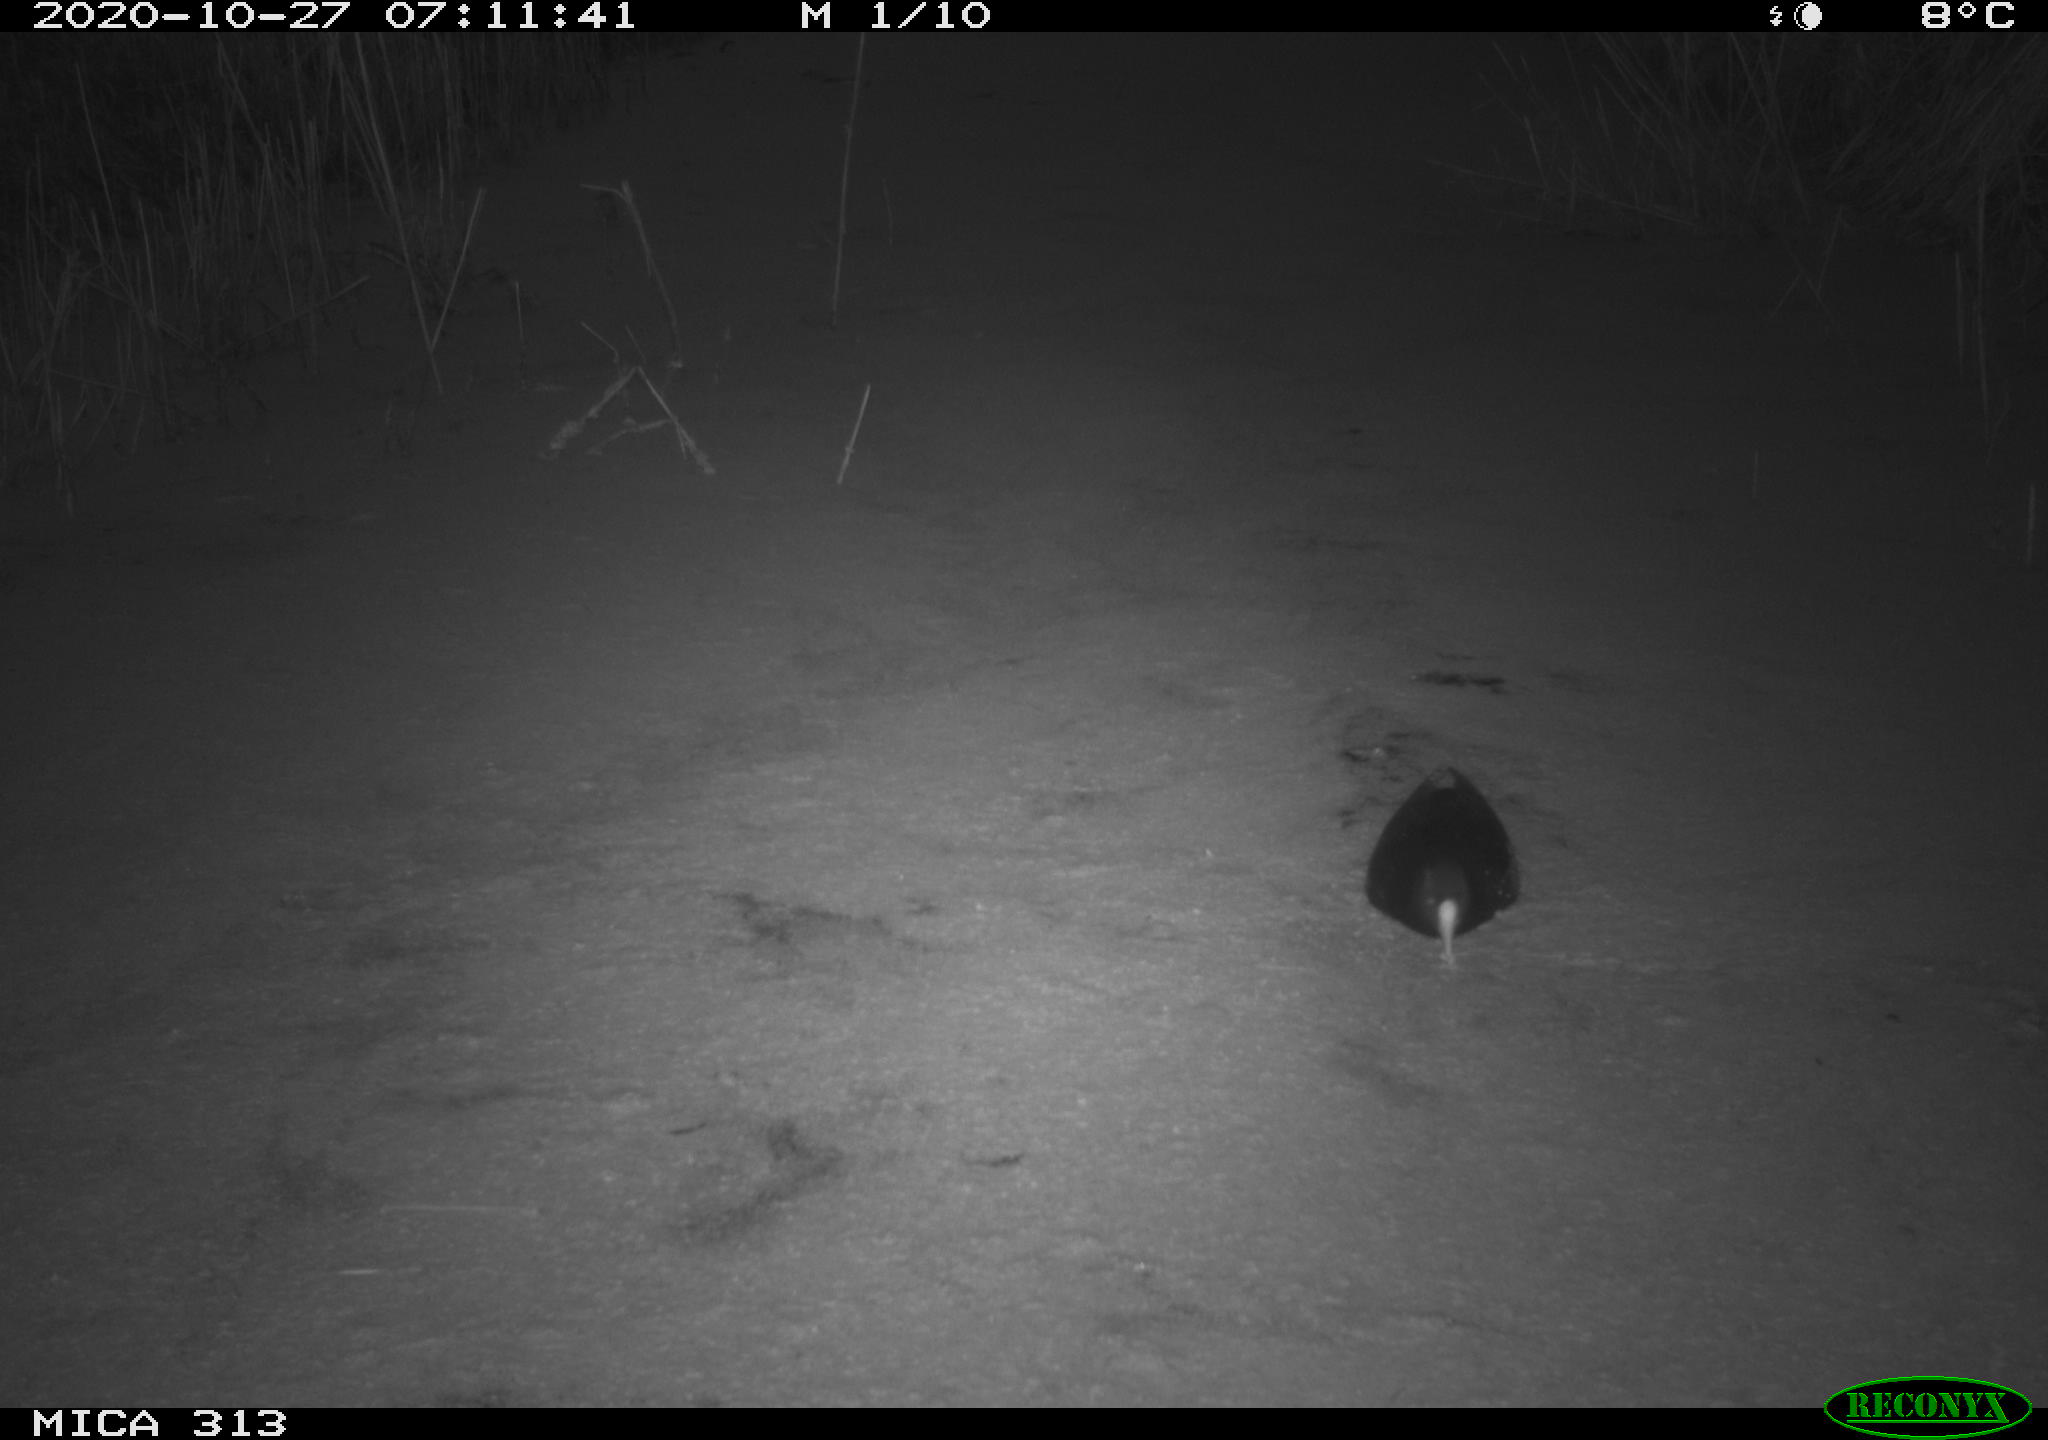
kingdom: Animalia
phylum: Chordata
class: Aves
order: Gruiformes
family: Rallidae
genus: Fulica
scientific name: Fulica atra
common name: Eurasian coot
